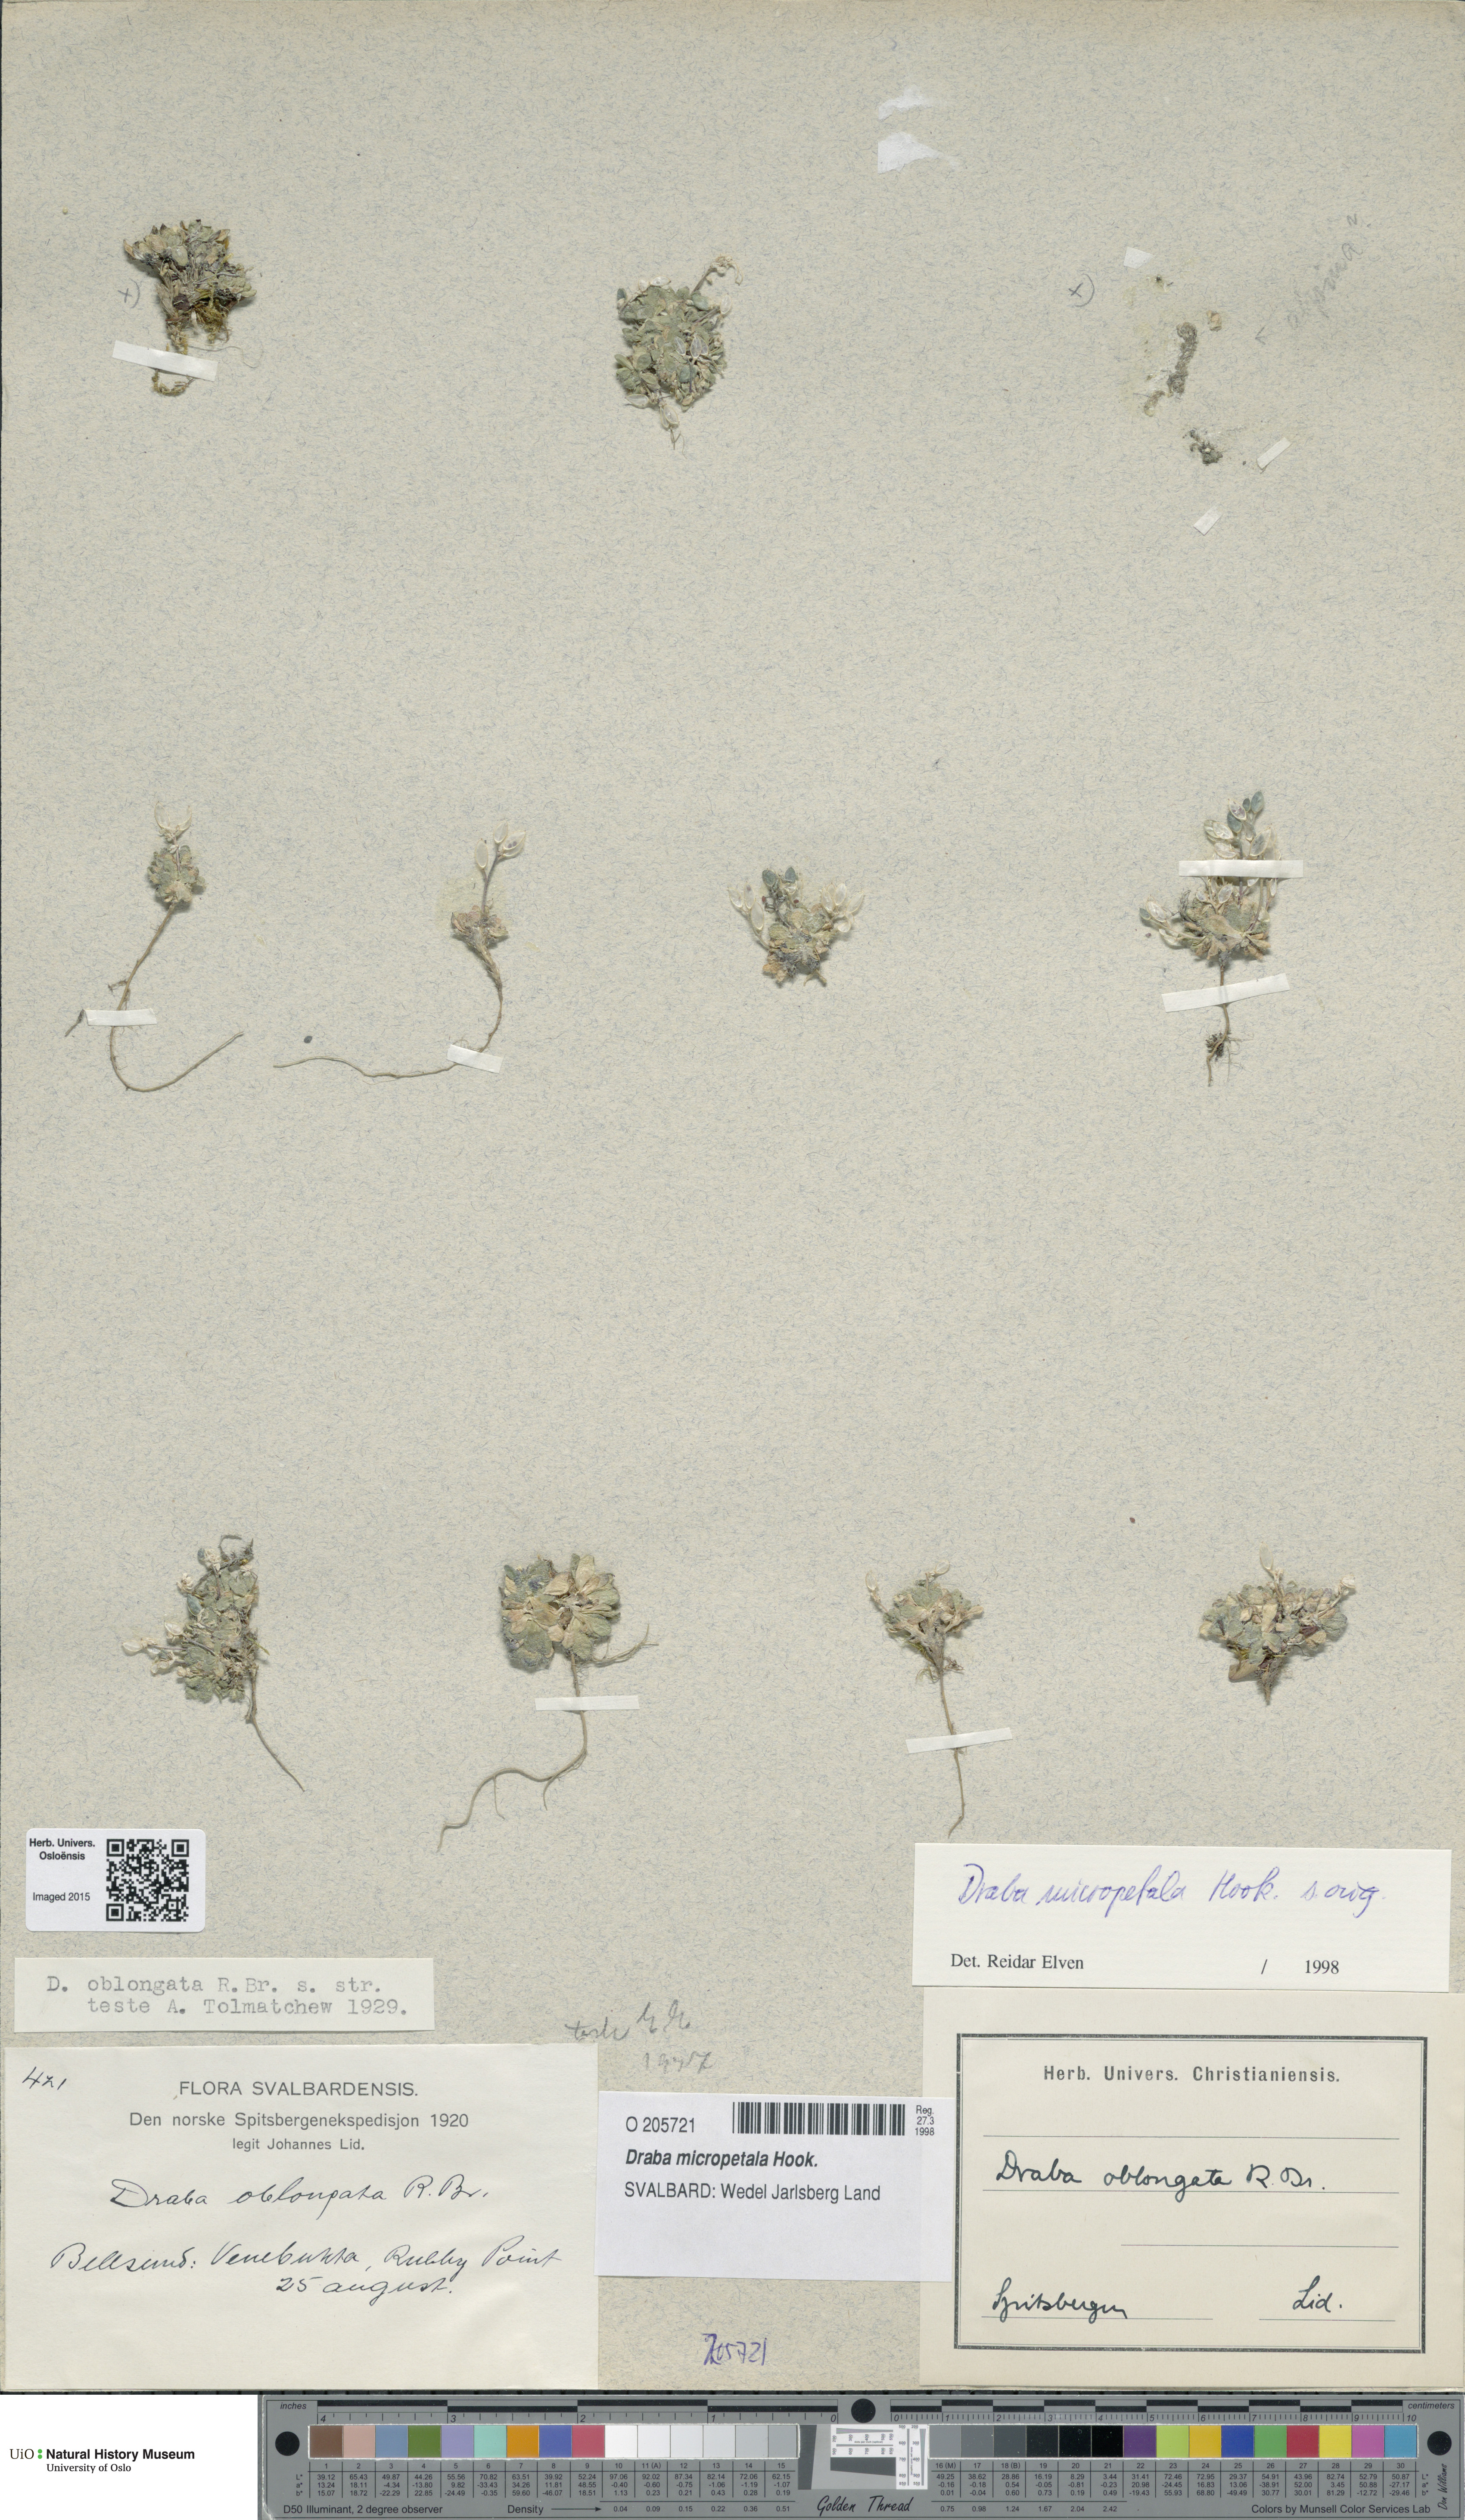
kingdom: Plantae
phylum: Tracheophyta
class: Magnoliopsida
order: Brassicales
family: Brassicaceae
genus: Draba
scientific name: Draba micropetala
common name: Small-flowered draba
